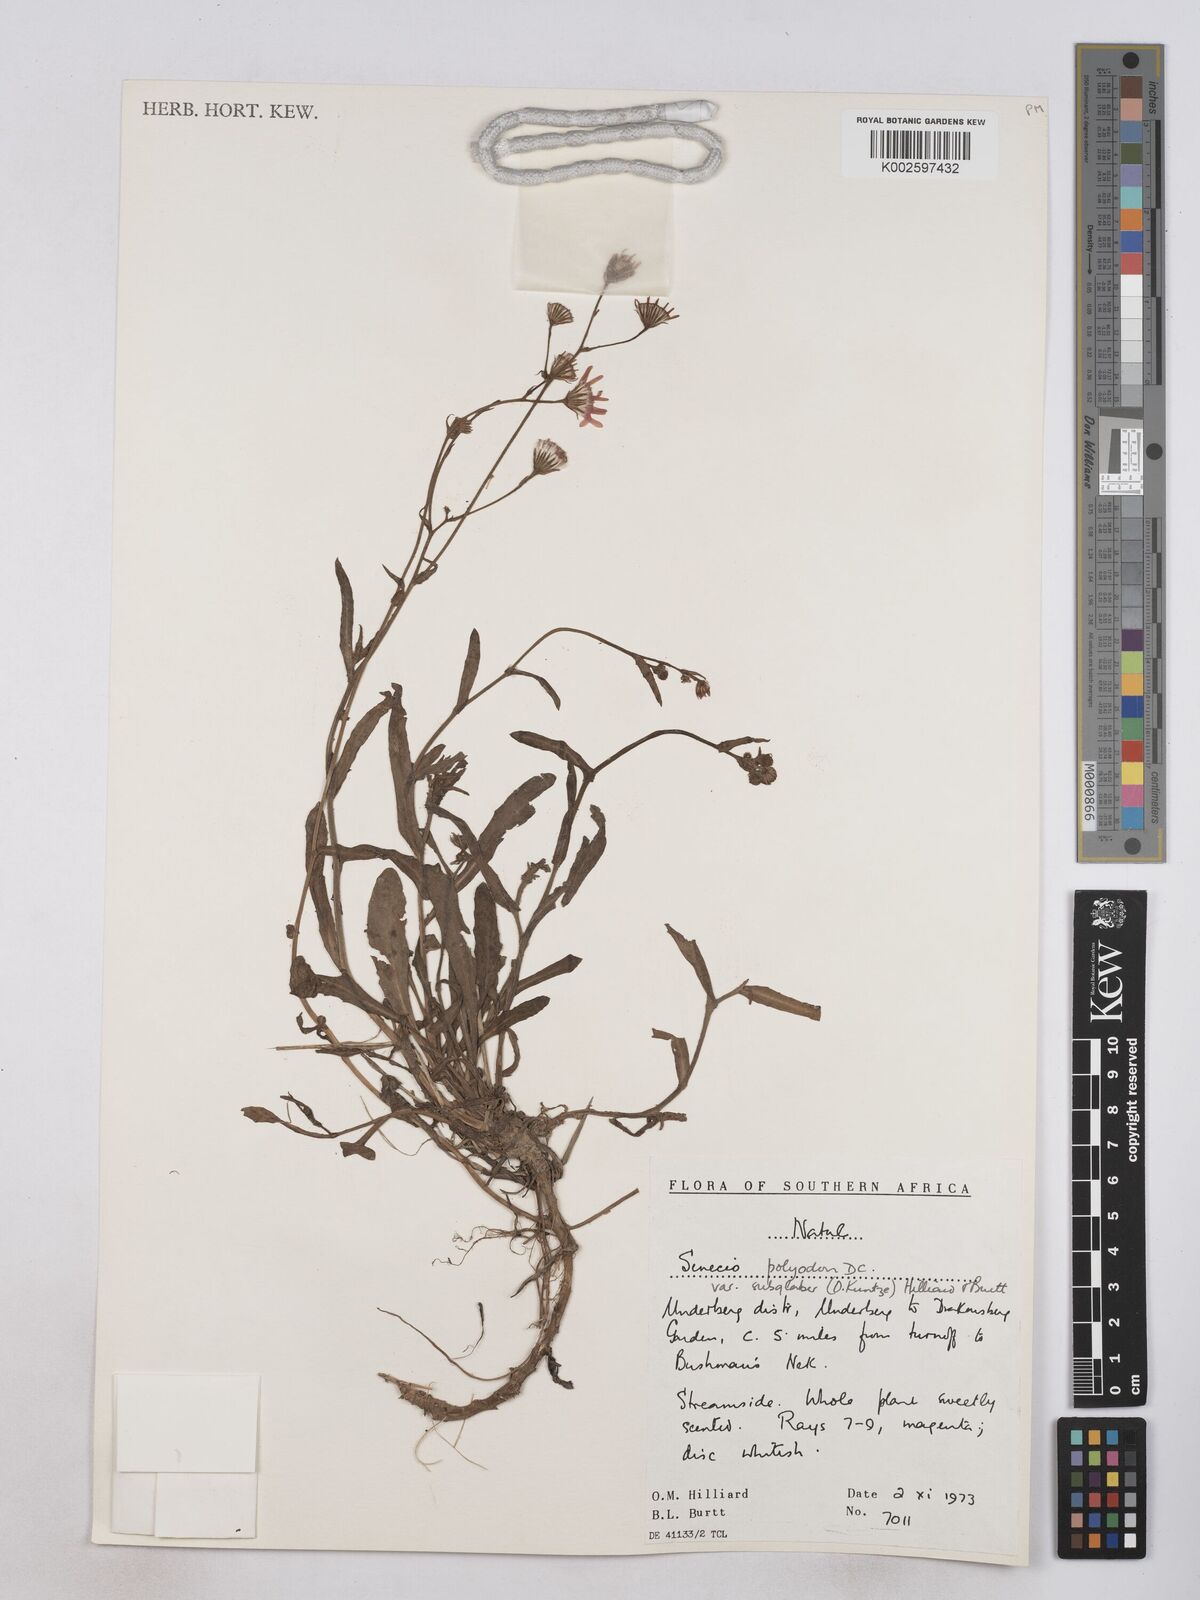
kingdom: Plantae
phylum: Tracheophyta
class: Magnoliopsida
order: Asterales
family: Asteraceae
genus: Senecio
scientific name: Senecio polyodon
